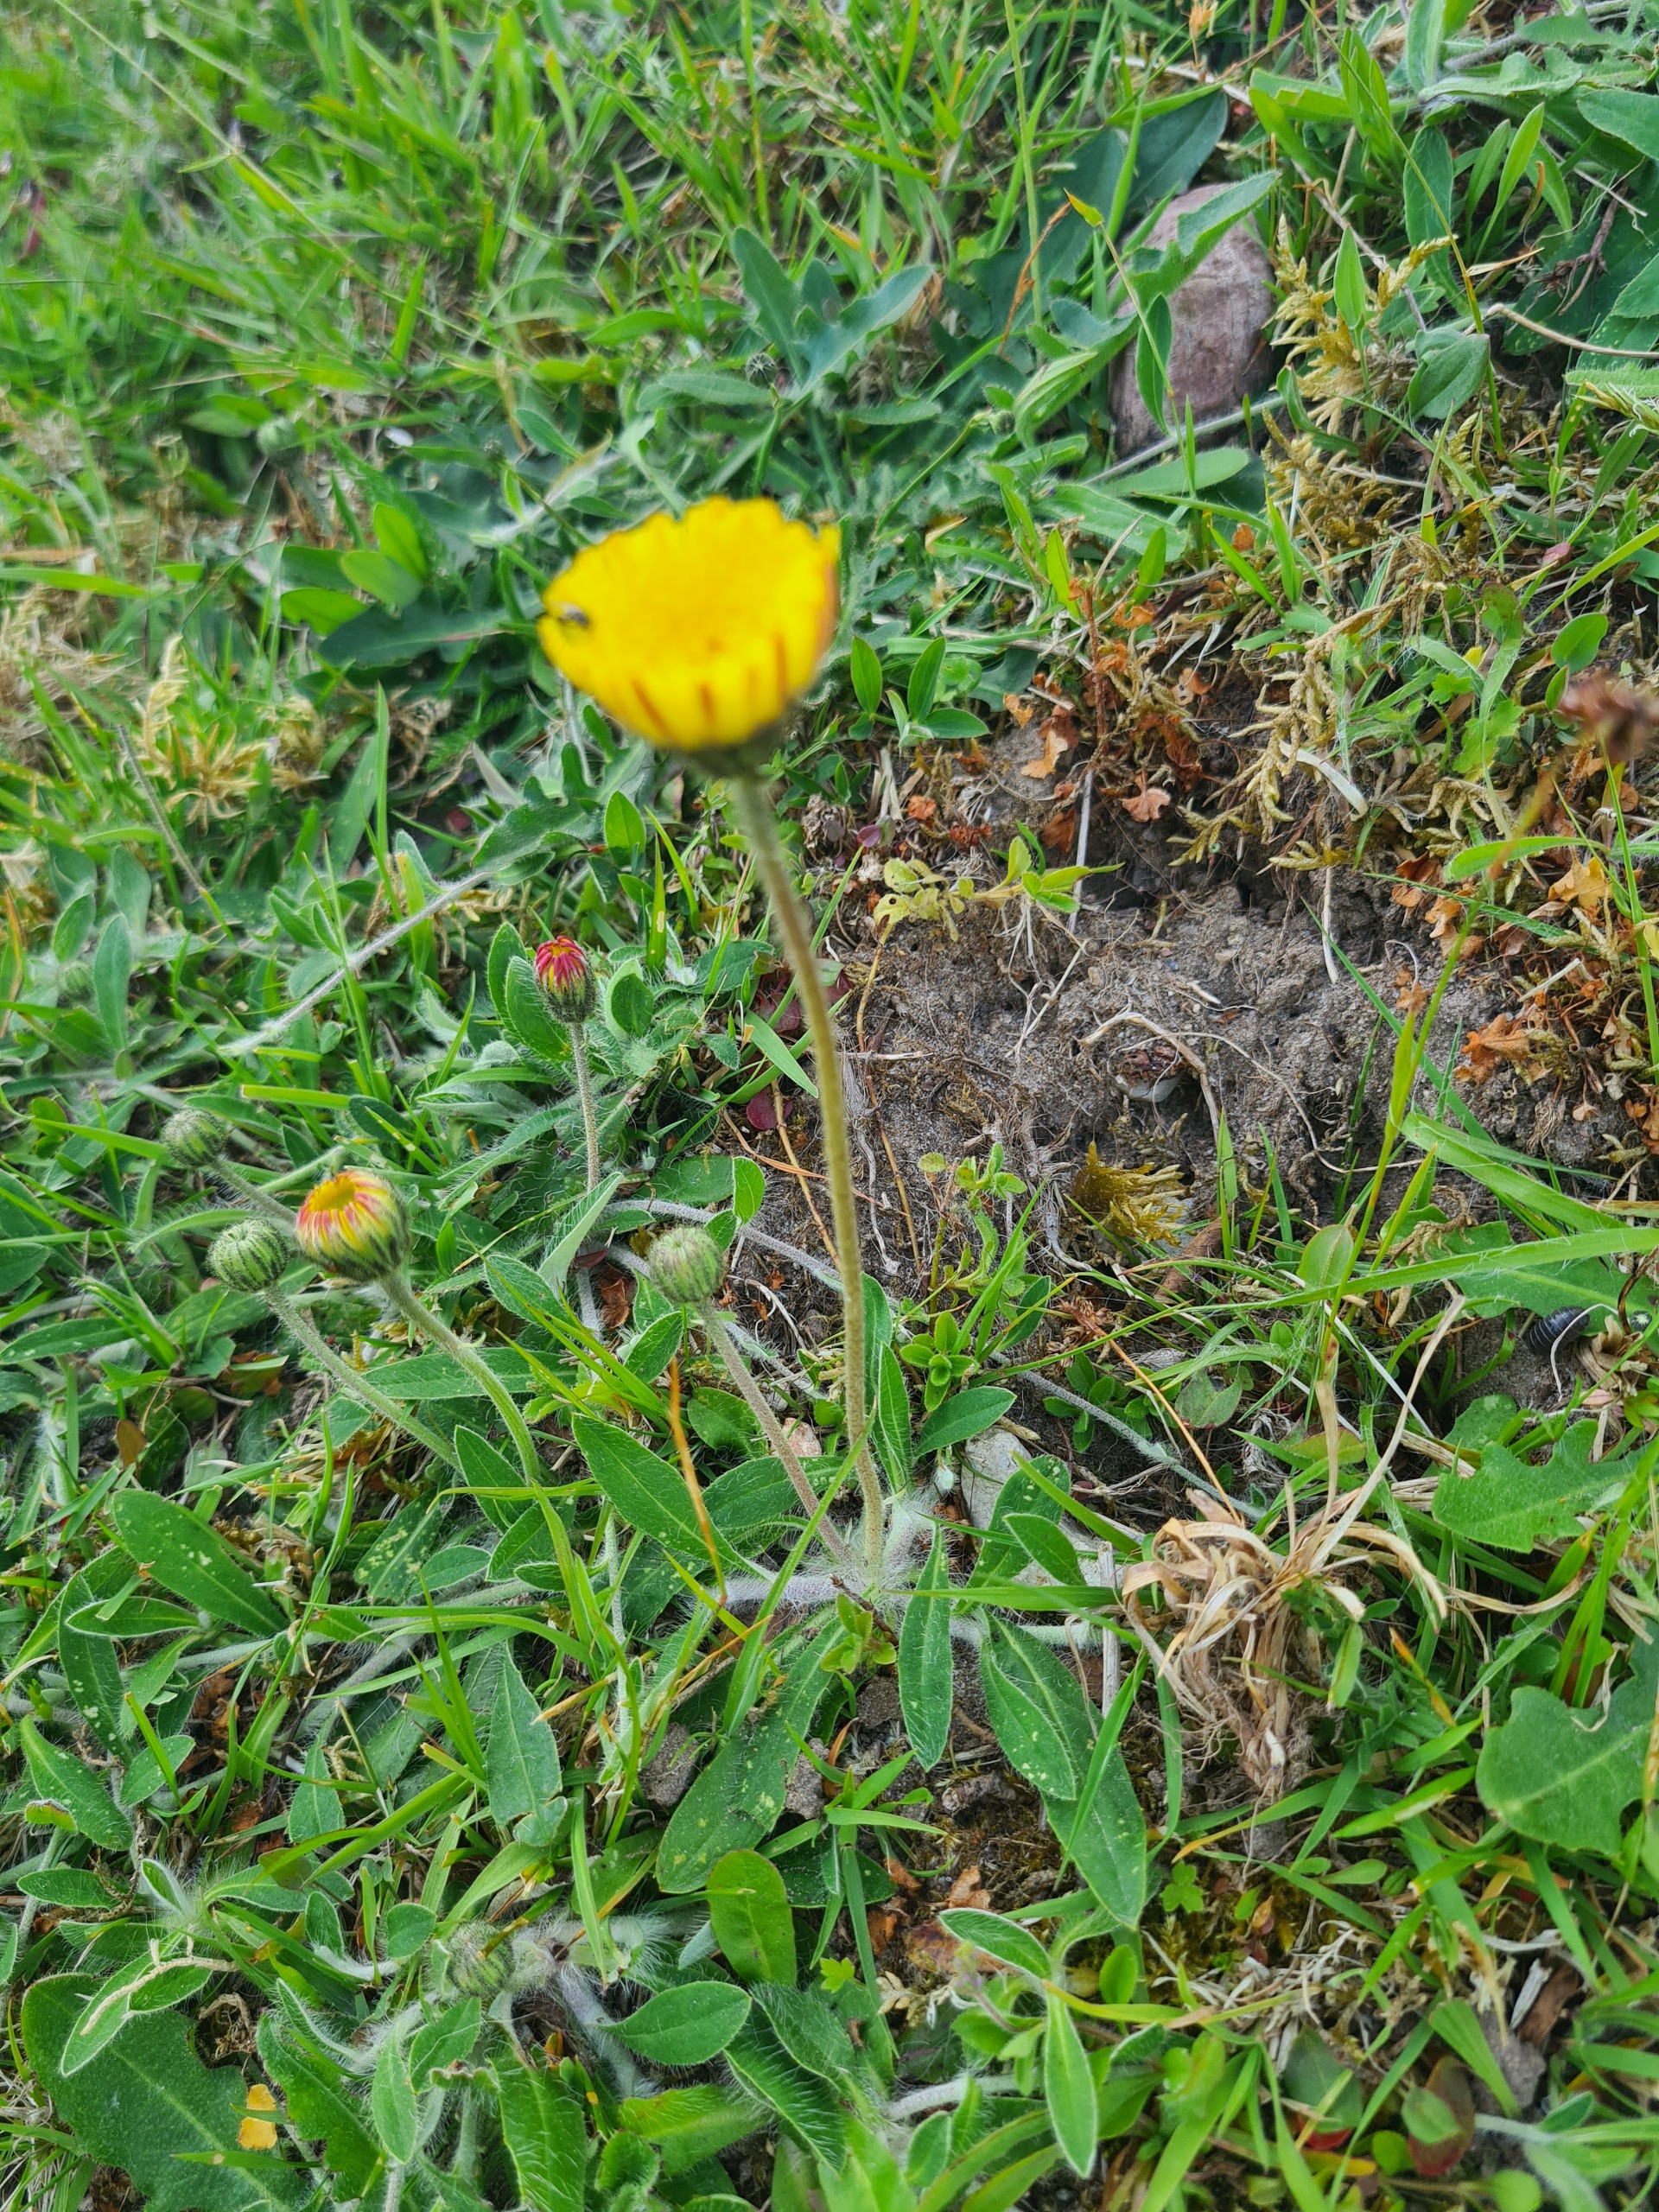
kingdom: Plantae
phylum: Tracheophyta
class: Magnoliopsida
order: Asterales
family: Asteraceae
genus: Pilosella
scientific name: Pilosella officinarum
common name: Håret høgeurt
